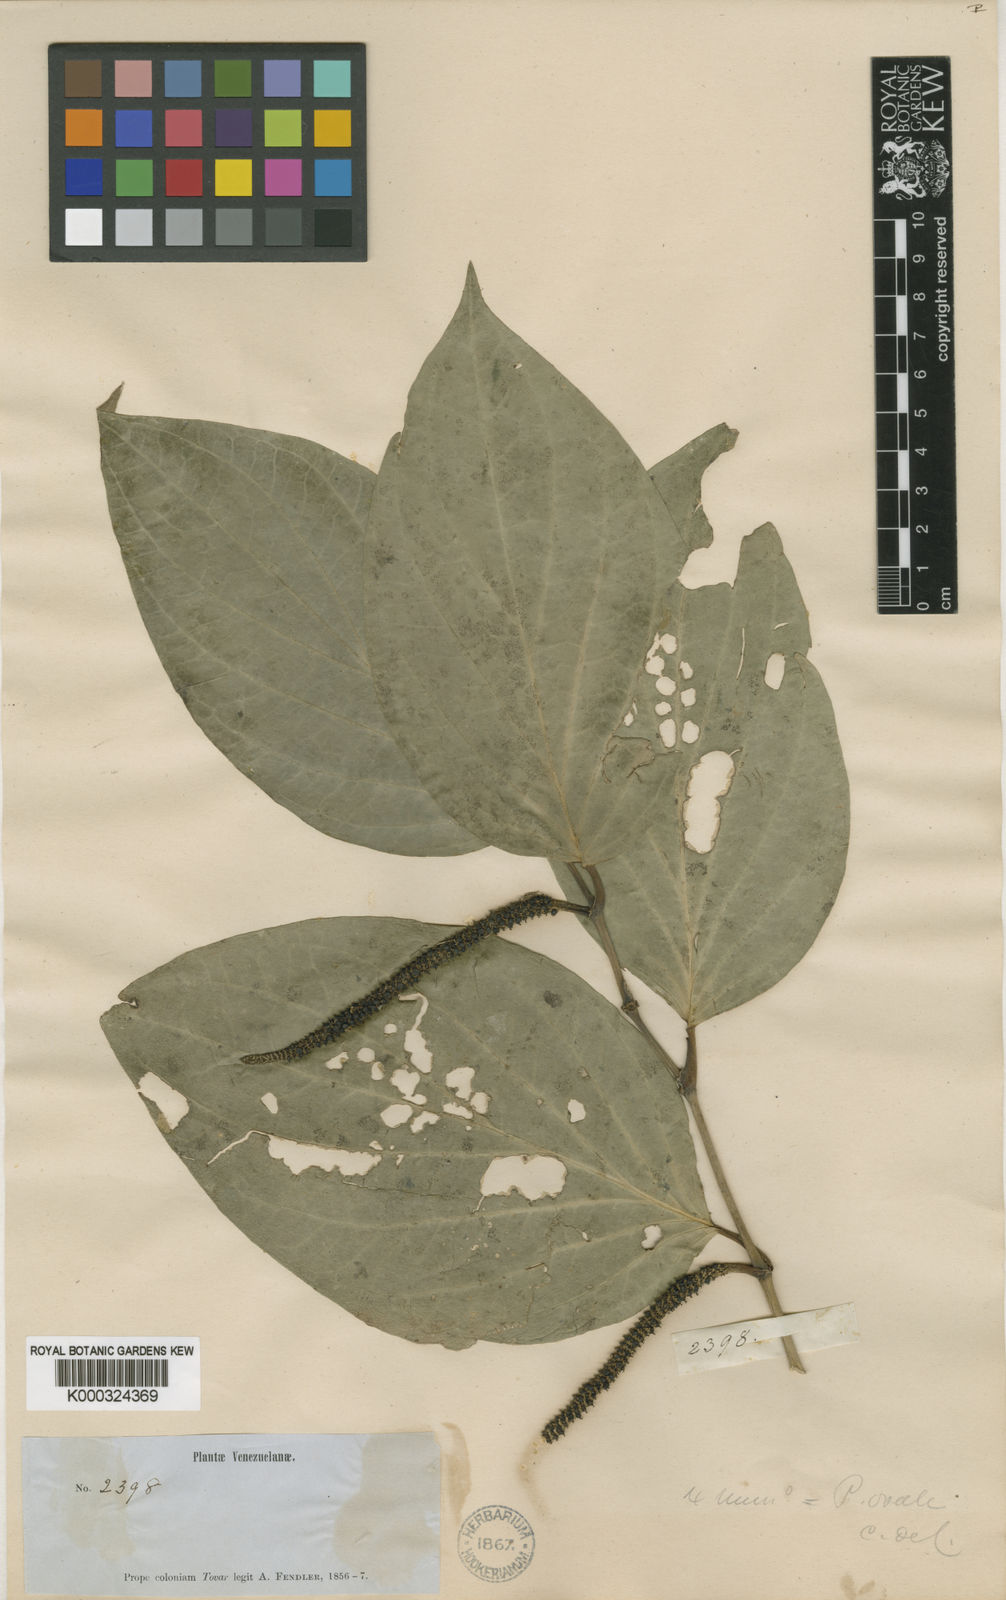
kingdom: Plantae
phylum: Tracheophyta
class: Magnoliopsida
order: Piperales
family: Piperaceae
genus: Piper
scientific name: Piper crassinervium
